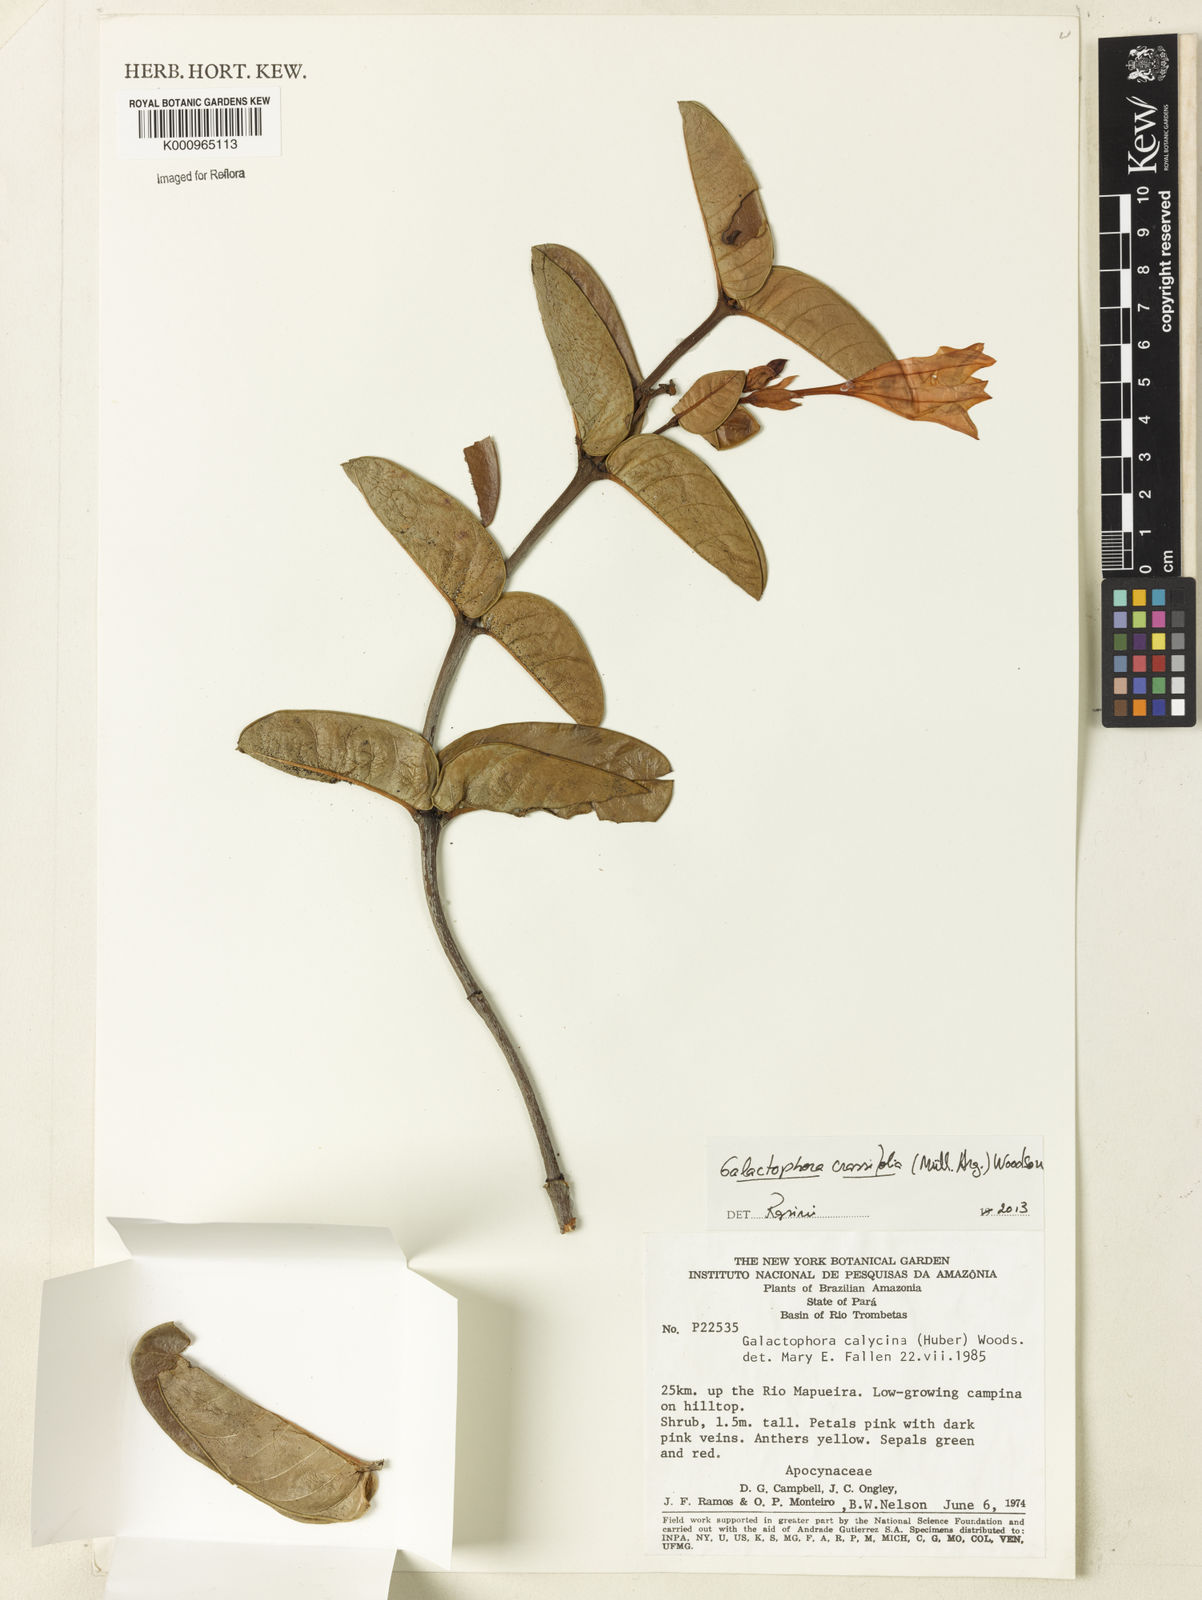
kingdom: Plantae
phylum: Tracheophyta
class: Magnoliopsida
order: Gentianales
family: Apocynaceae
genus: Galactophora
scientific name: Galactophora
